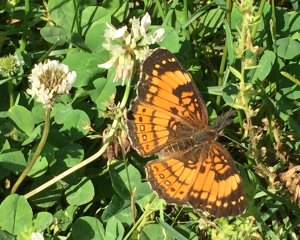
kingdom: Animalia
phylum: Arthropoda
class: Insecta
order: Lepidoptera
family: Nymphalidae
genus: Chlosyne
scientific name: Chlosyne nycteis
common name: Silvery Checkerspot
